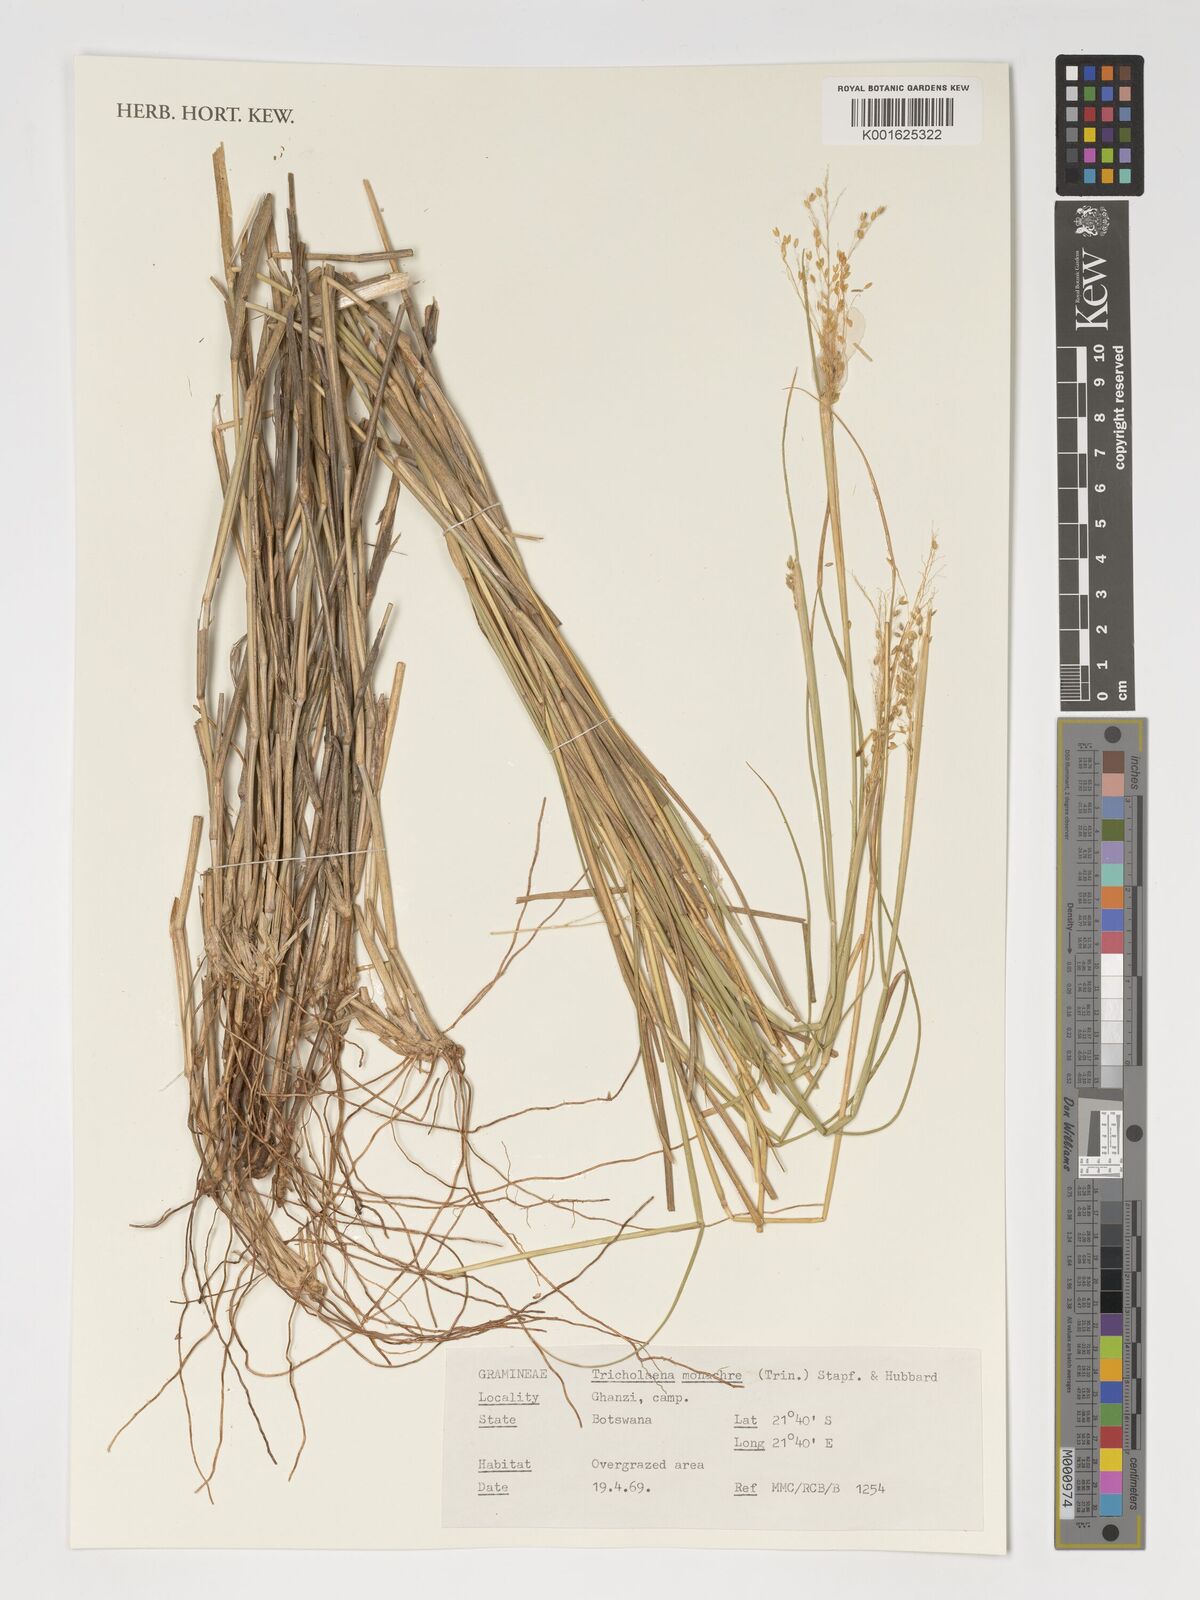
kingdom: Plantae
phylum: Tracheophyta
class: Liliopsida
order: Poales
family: Poaceae
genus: Tricholaena
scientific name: Tricholaena monachne
